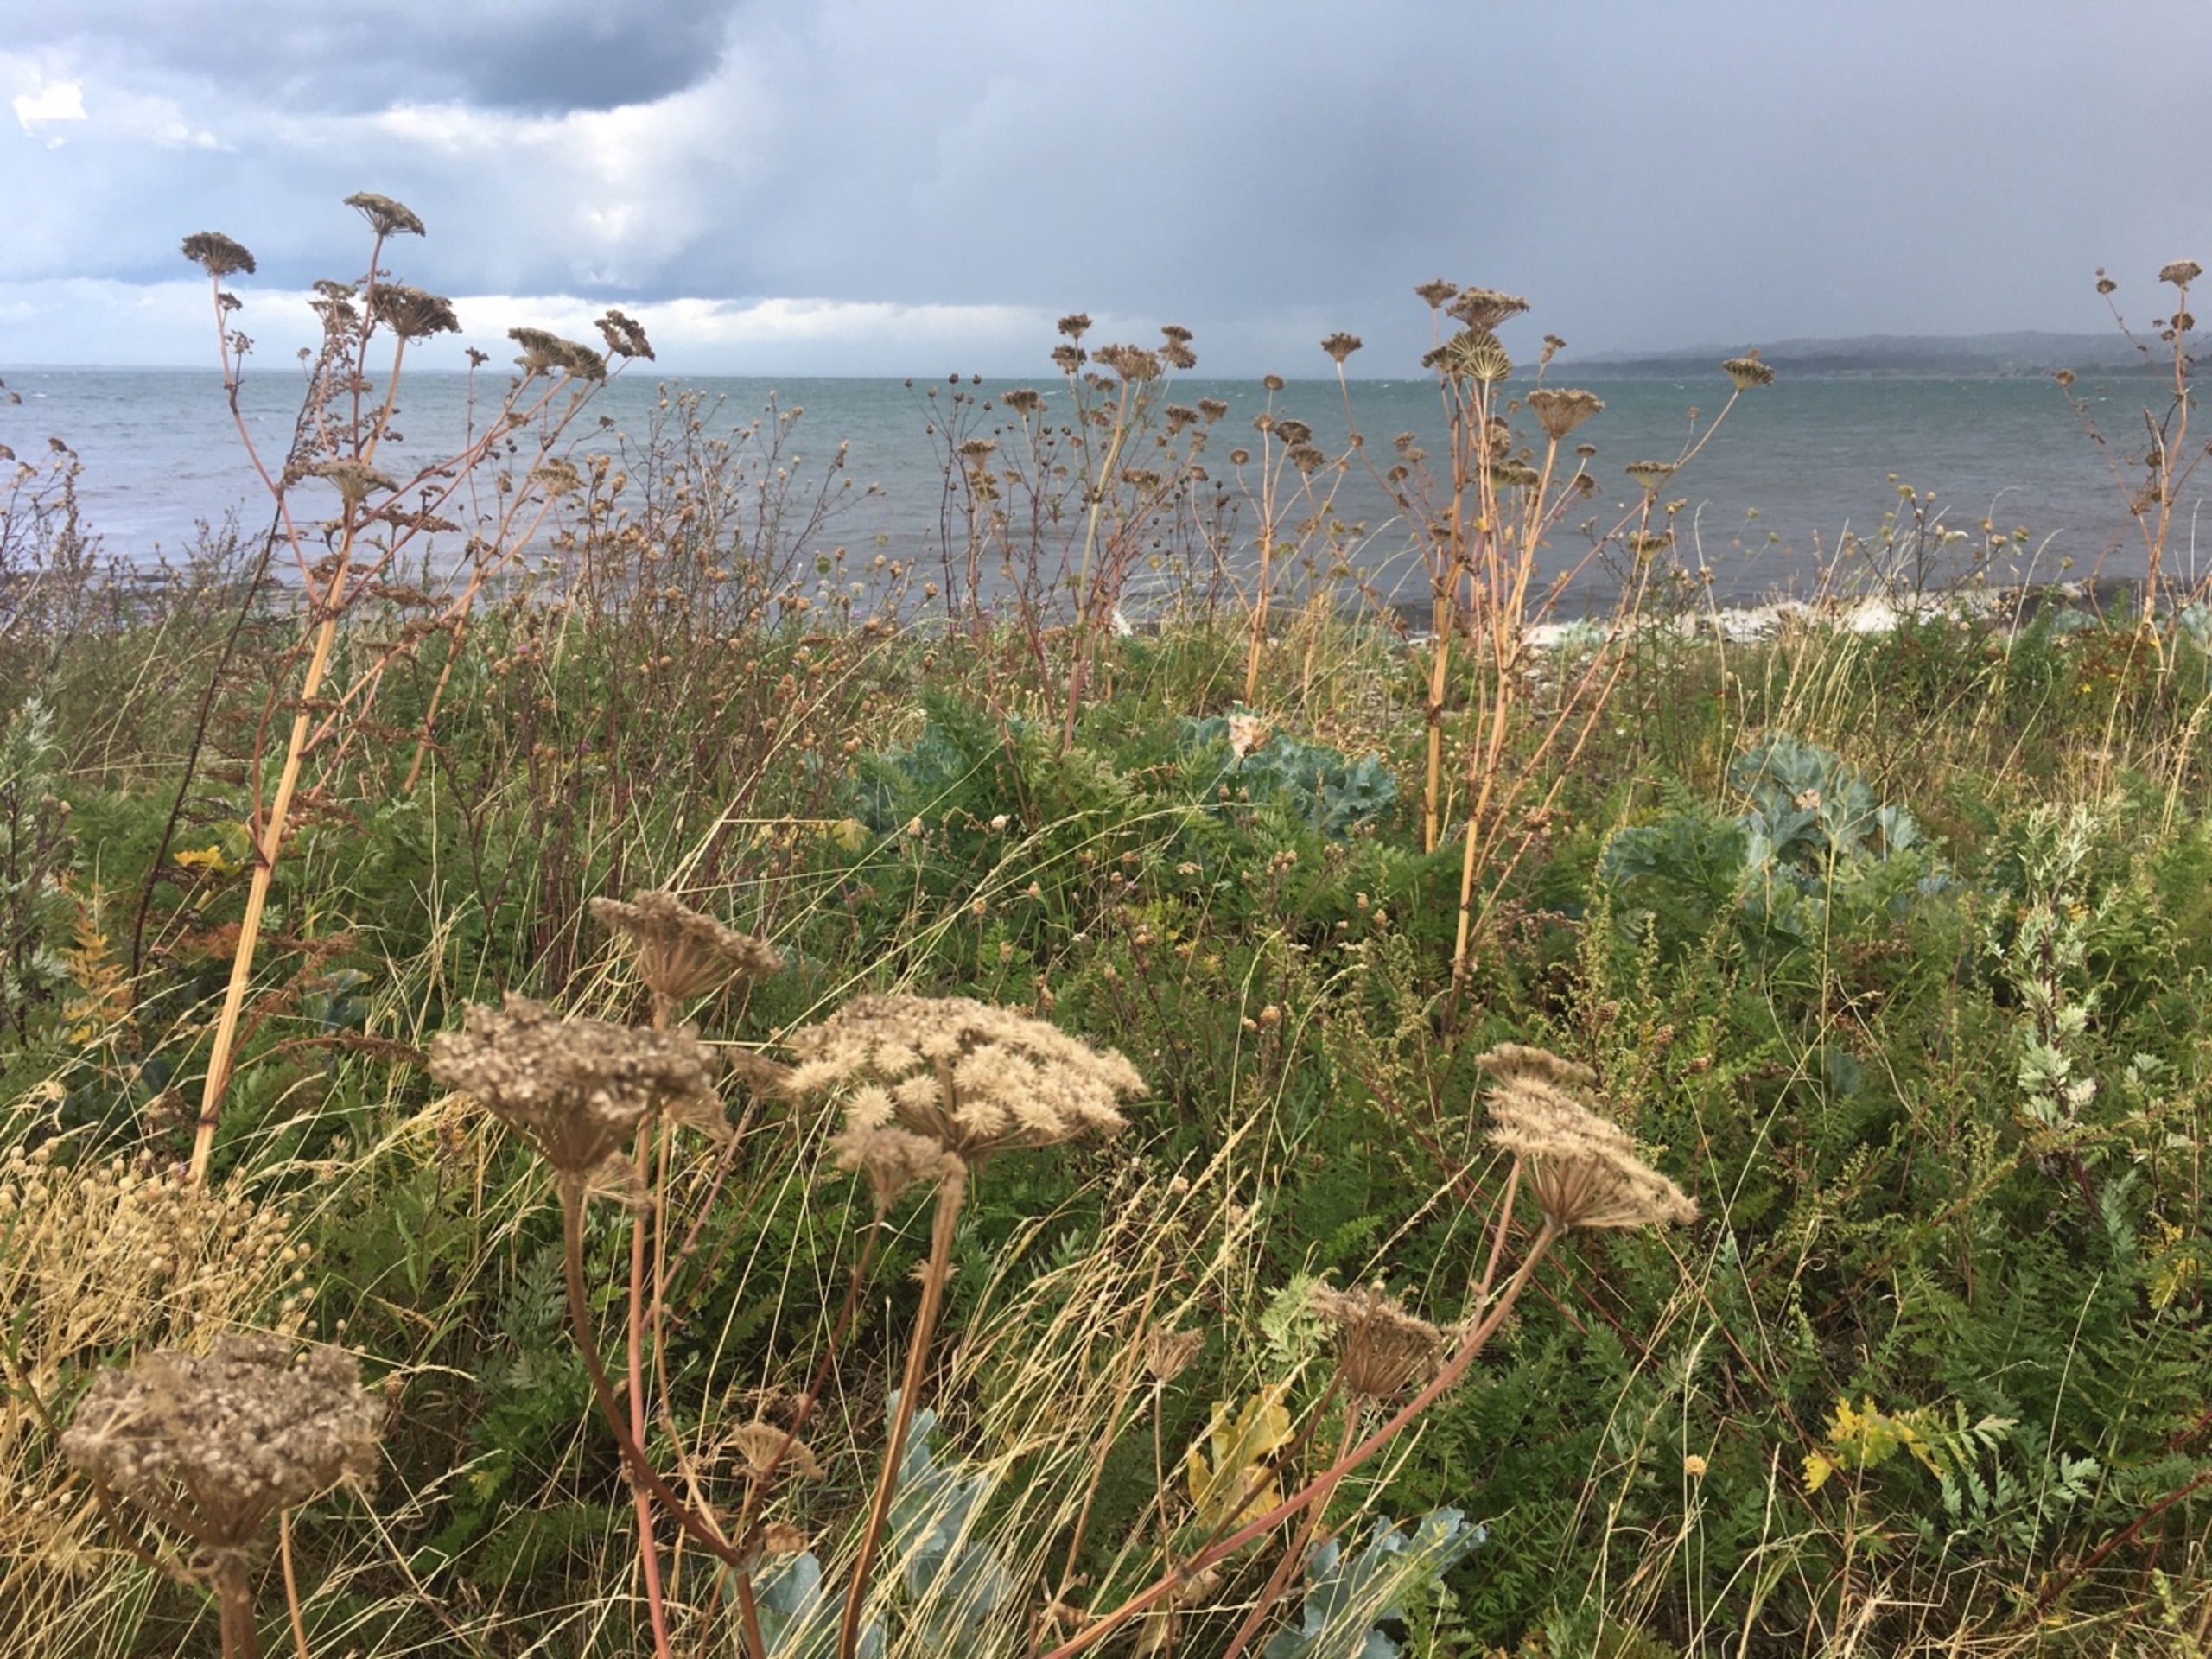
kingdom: Plantae
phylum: Tracheophyta
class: Magnoliopsida
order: Apiales
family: Apiaceae
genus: Seseli
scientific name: Seseli libanotis
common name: Hjorterod
